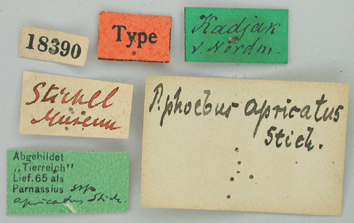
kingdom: Animalia
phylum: Arthropoda
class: Insecta
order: Lepidoptera
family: Papilionidae
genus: Parnassius
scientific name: Parnassius smintheus
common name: Mountain parnassian
